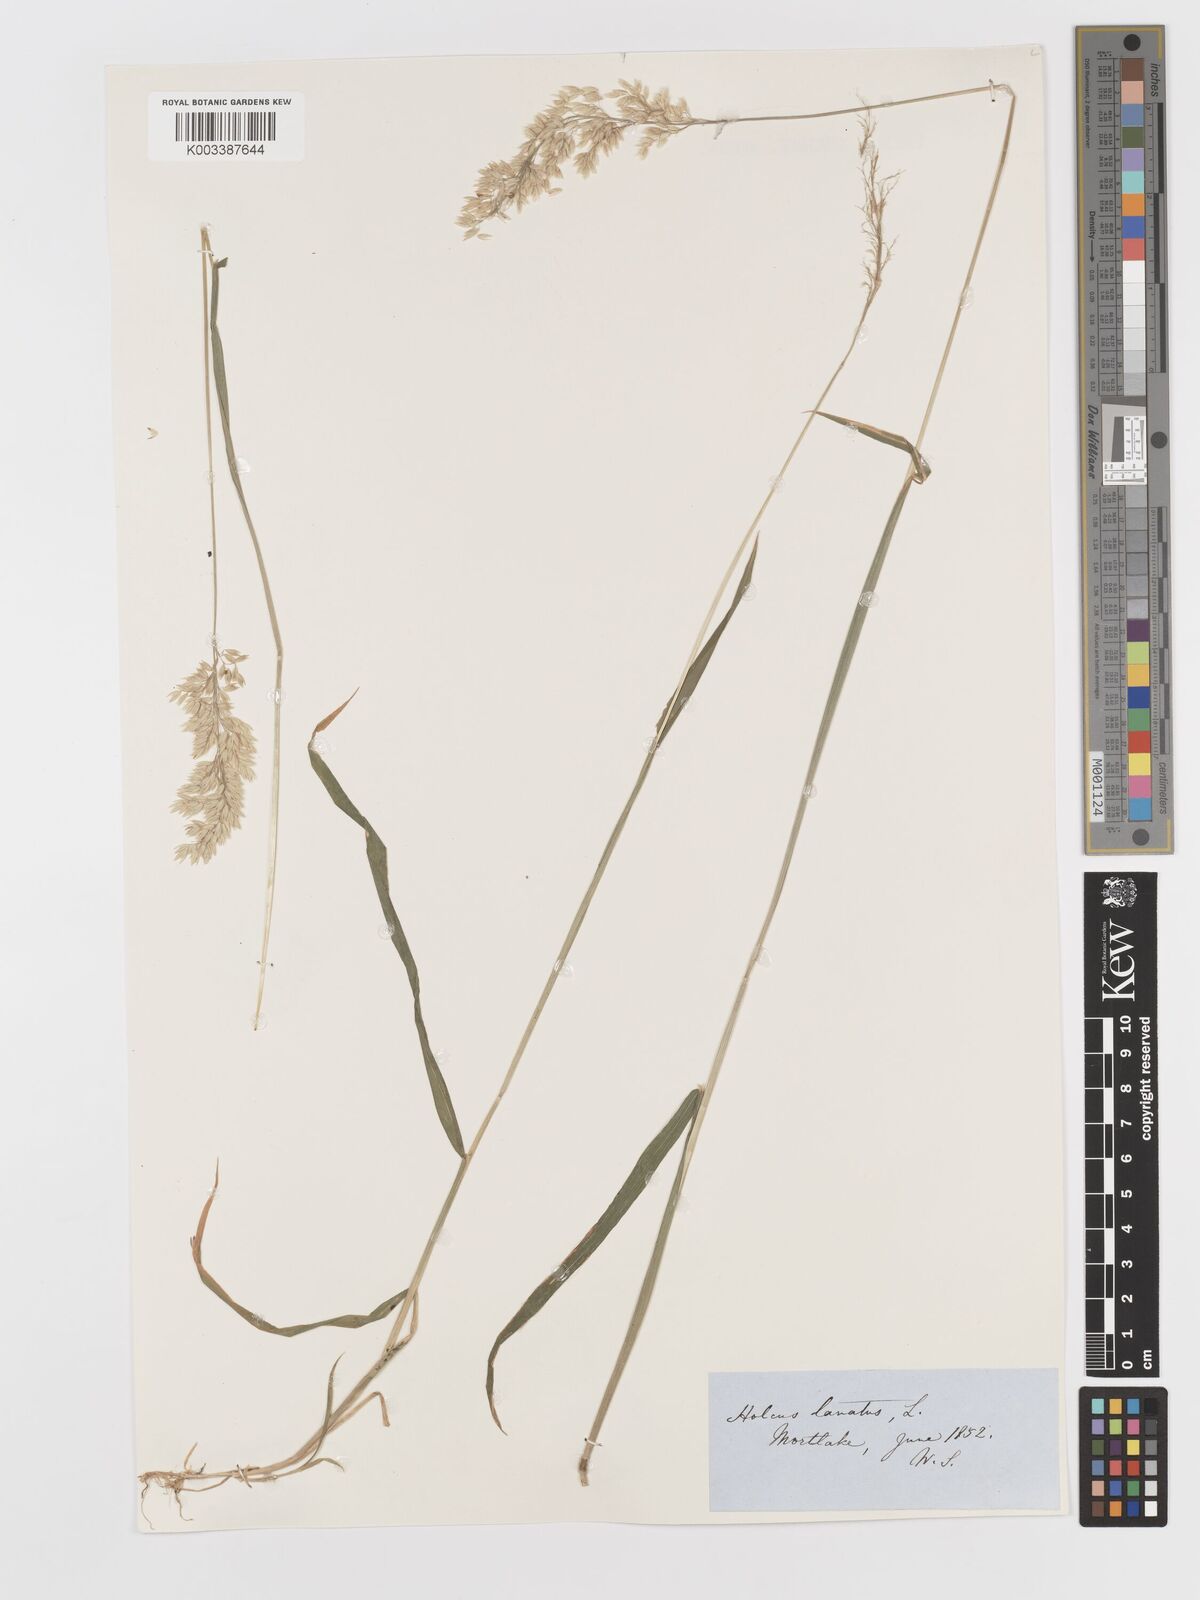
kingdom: Plantae
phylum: Tracheophyta
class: Liliopsida
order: Poales
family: Poaceae
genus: Holcus
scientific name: Holcus lanatus
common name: Yorkshire-fog
